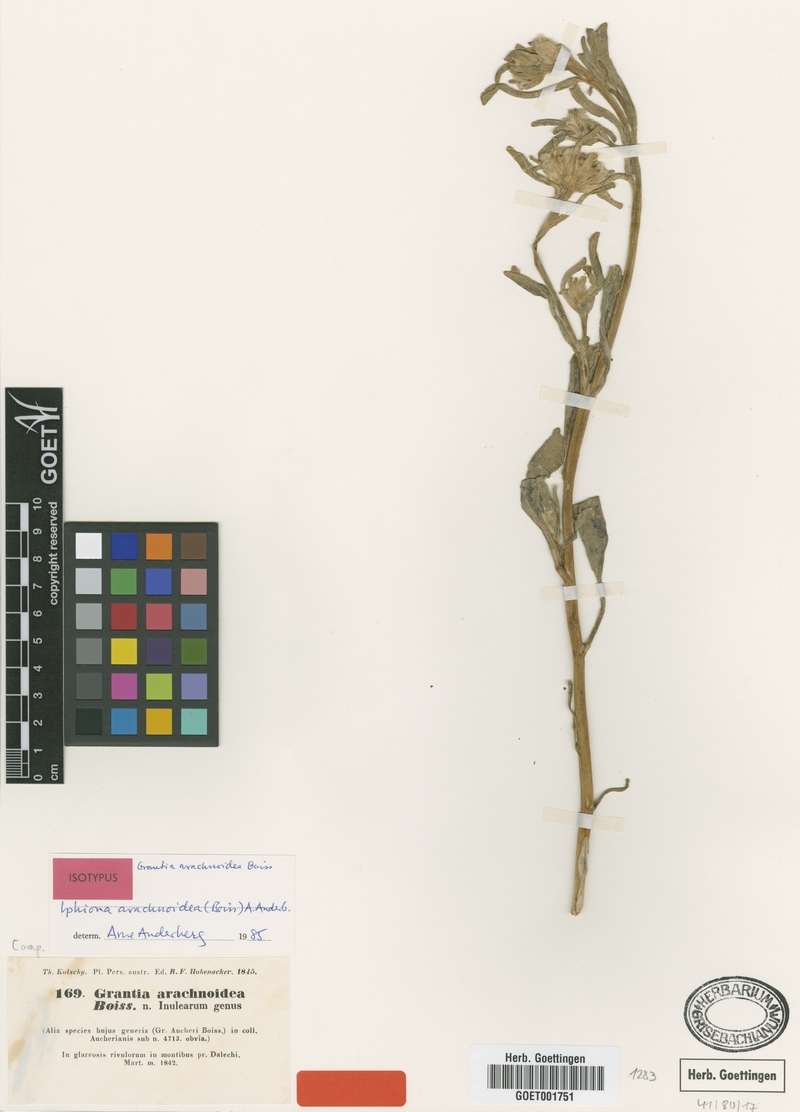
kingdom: Plantae
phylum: Tracheophyta
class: Magnoliopsida
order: Asterales
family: Asteraceae
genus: Iphiona
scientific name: Iphiona arachnoidea
